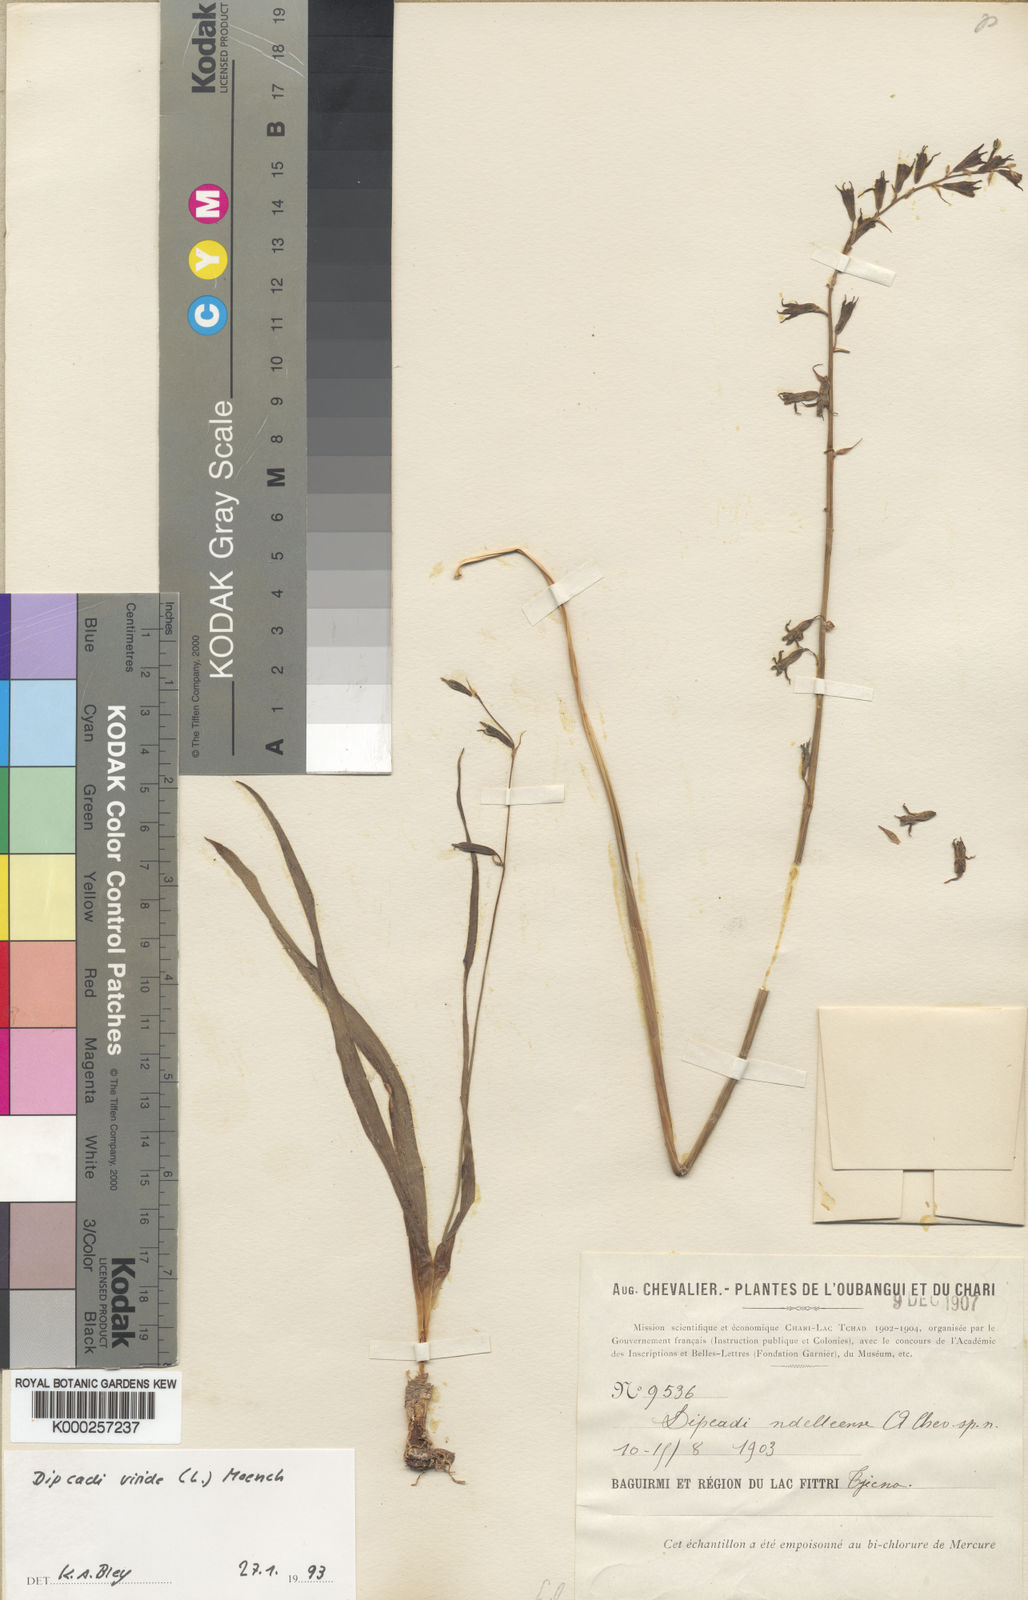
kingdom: Plantae
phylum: Tracheophyta
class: Liliopsida
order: Asparagales
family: Asparagaceae
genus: Dipcadi
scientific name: Dipcadi viride
